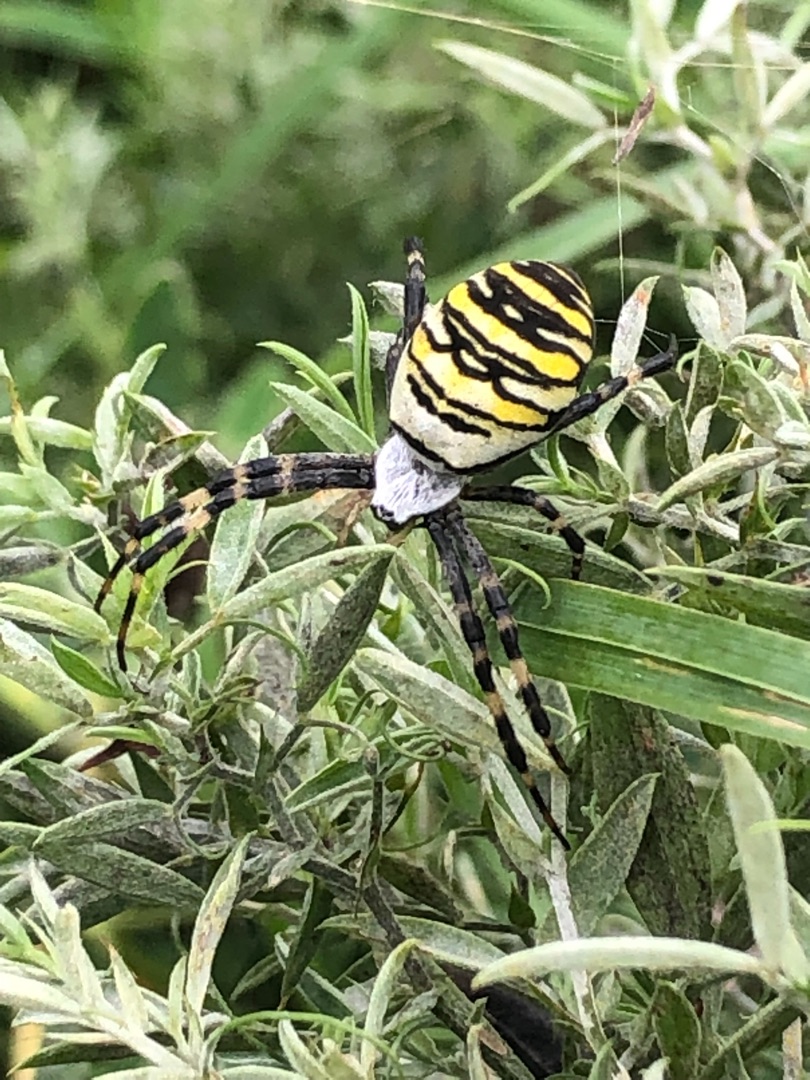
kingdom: Animalia
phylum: Arthropoda
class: Arachnida
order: Araneae
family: Araneidae
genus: Argiope
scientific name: Argiope bruennichi
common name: Hvepseedderkop
